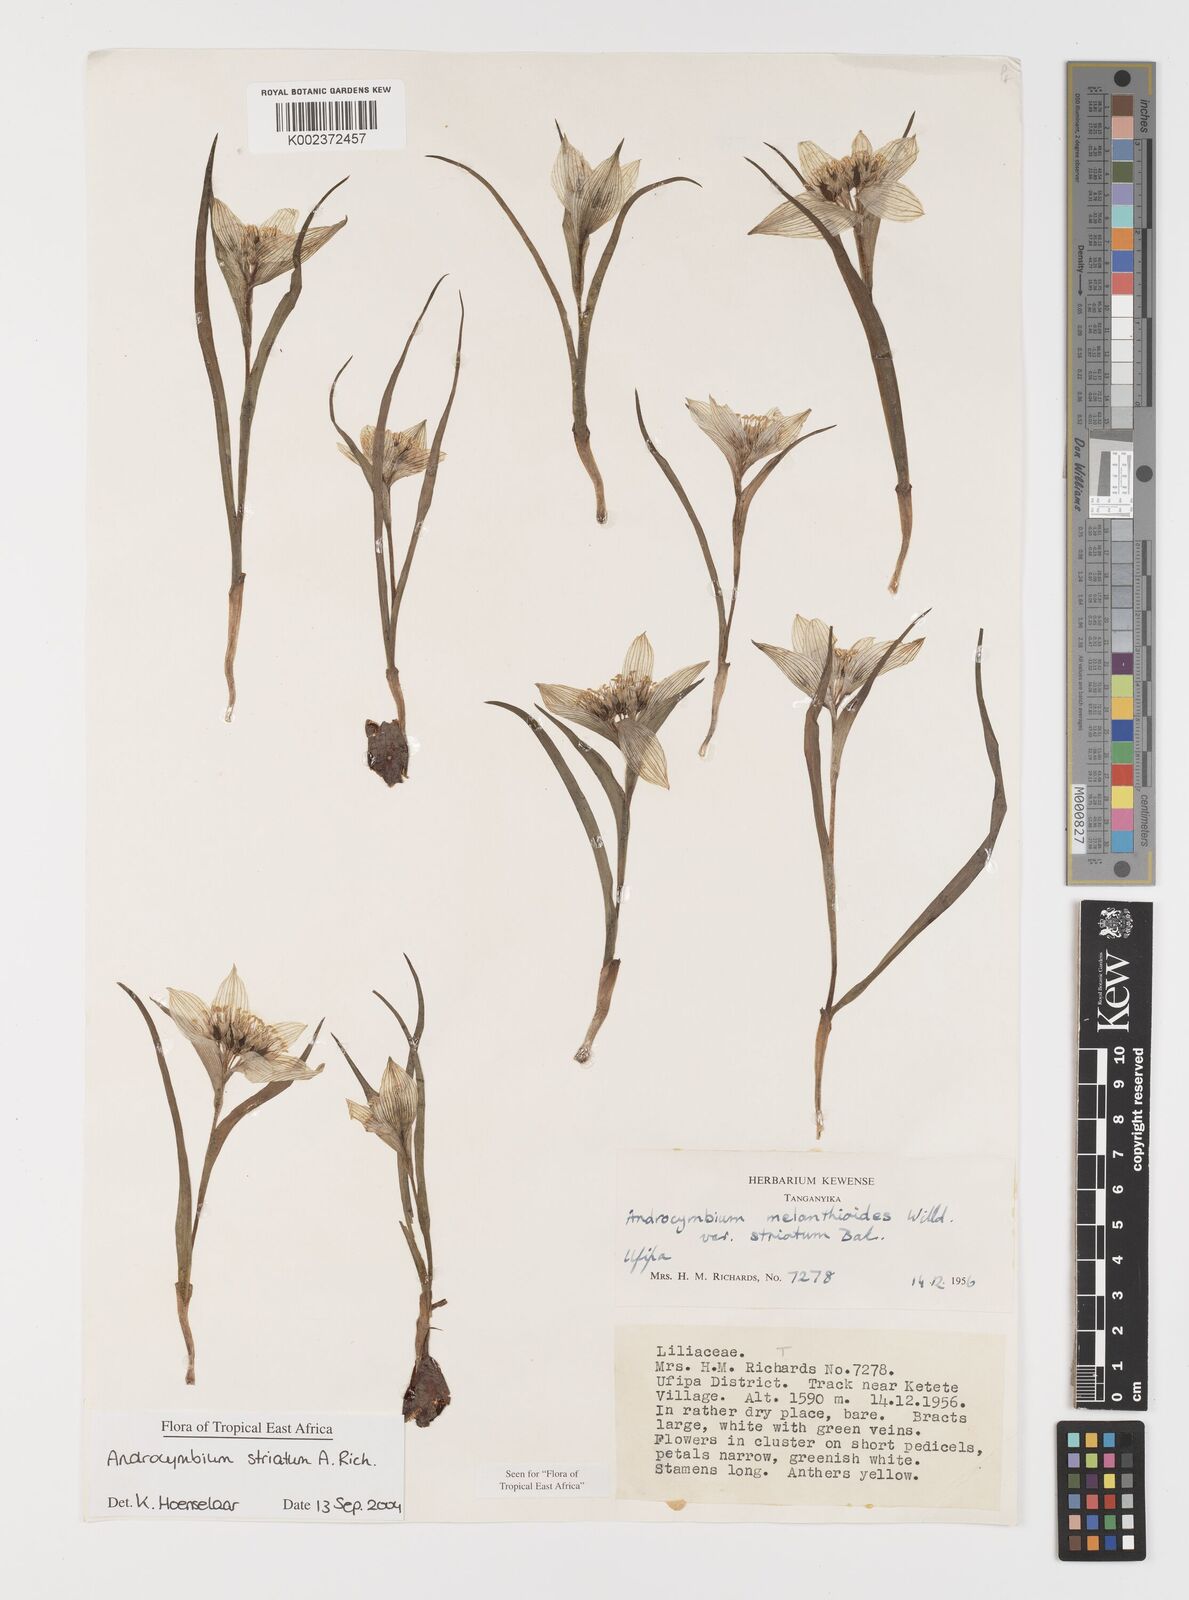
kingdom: Plantae
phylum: Tracheophyta
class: Liliopsida
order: Liliales
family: Colchicaceae
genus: Colchicum
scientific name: Colchicum striatum
